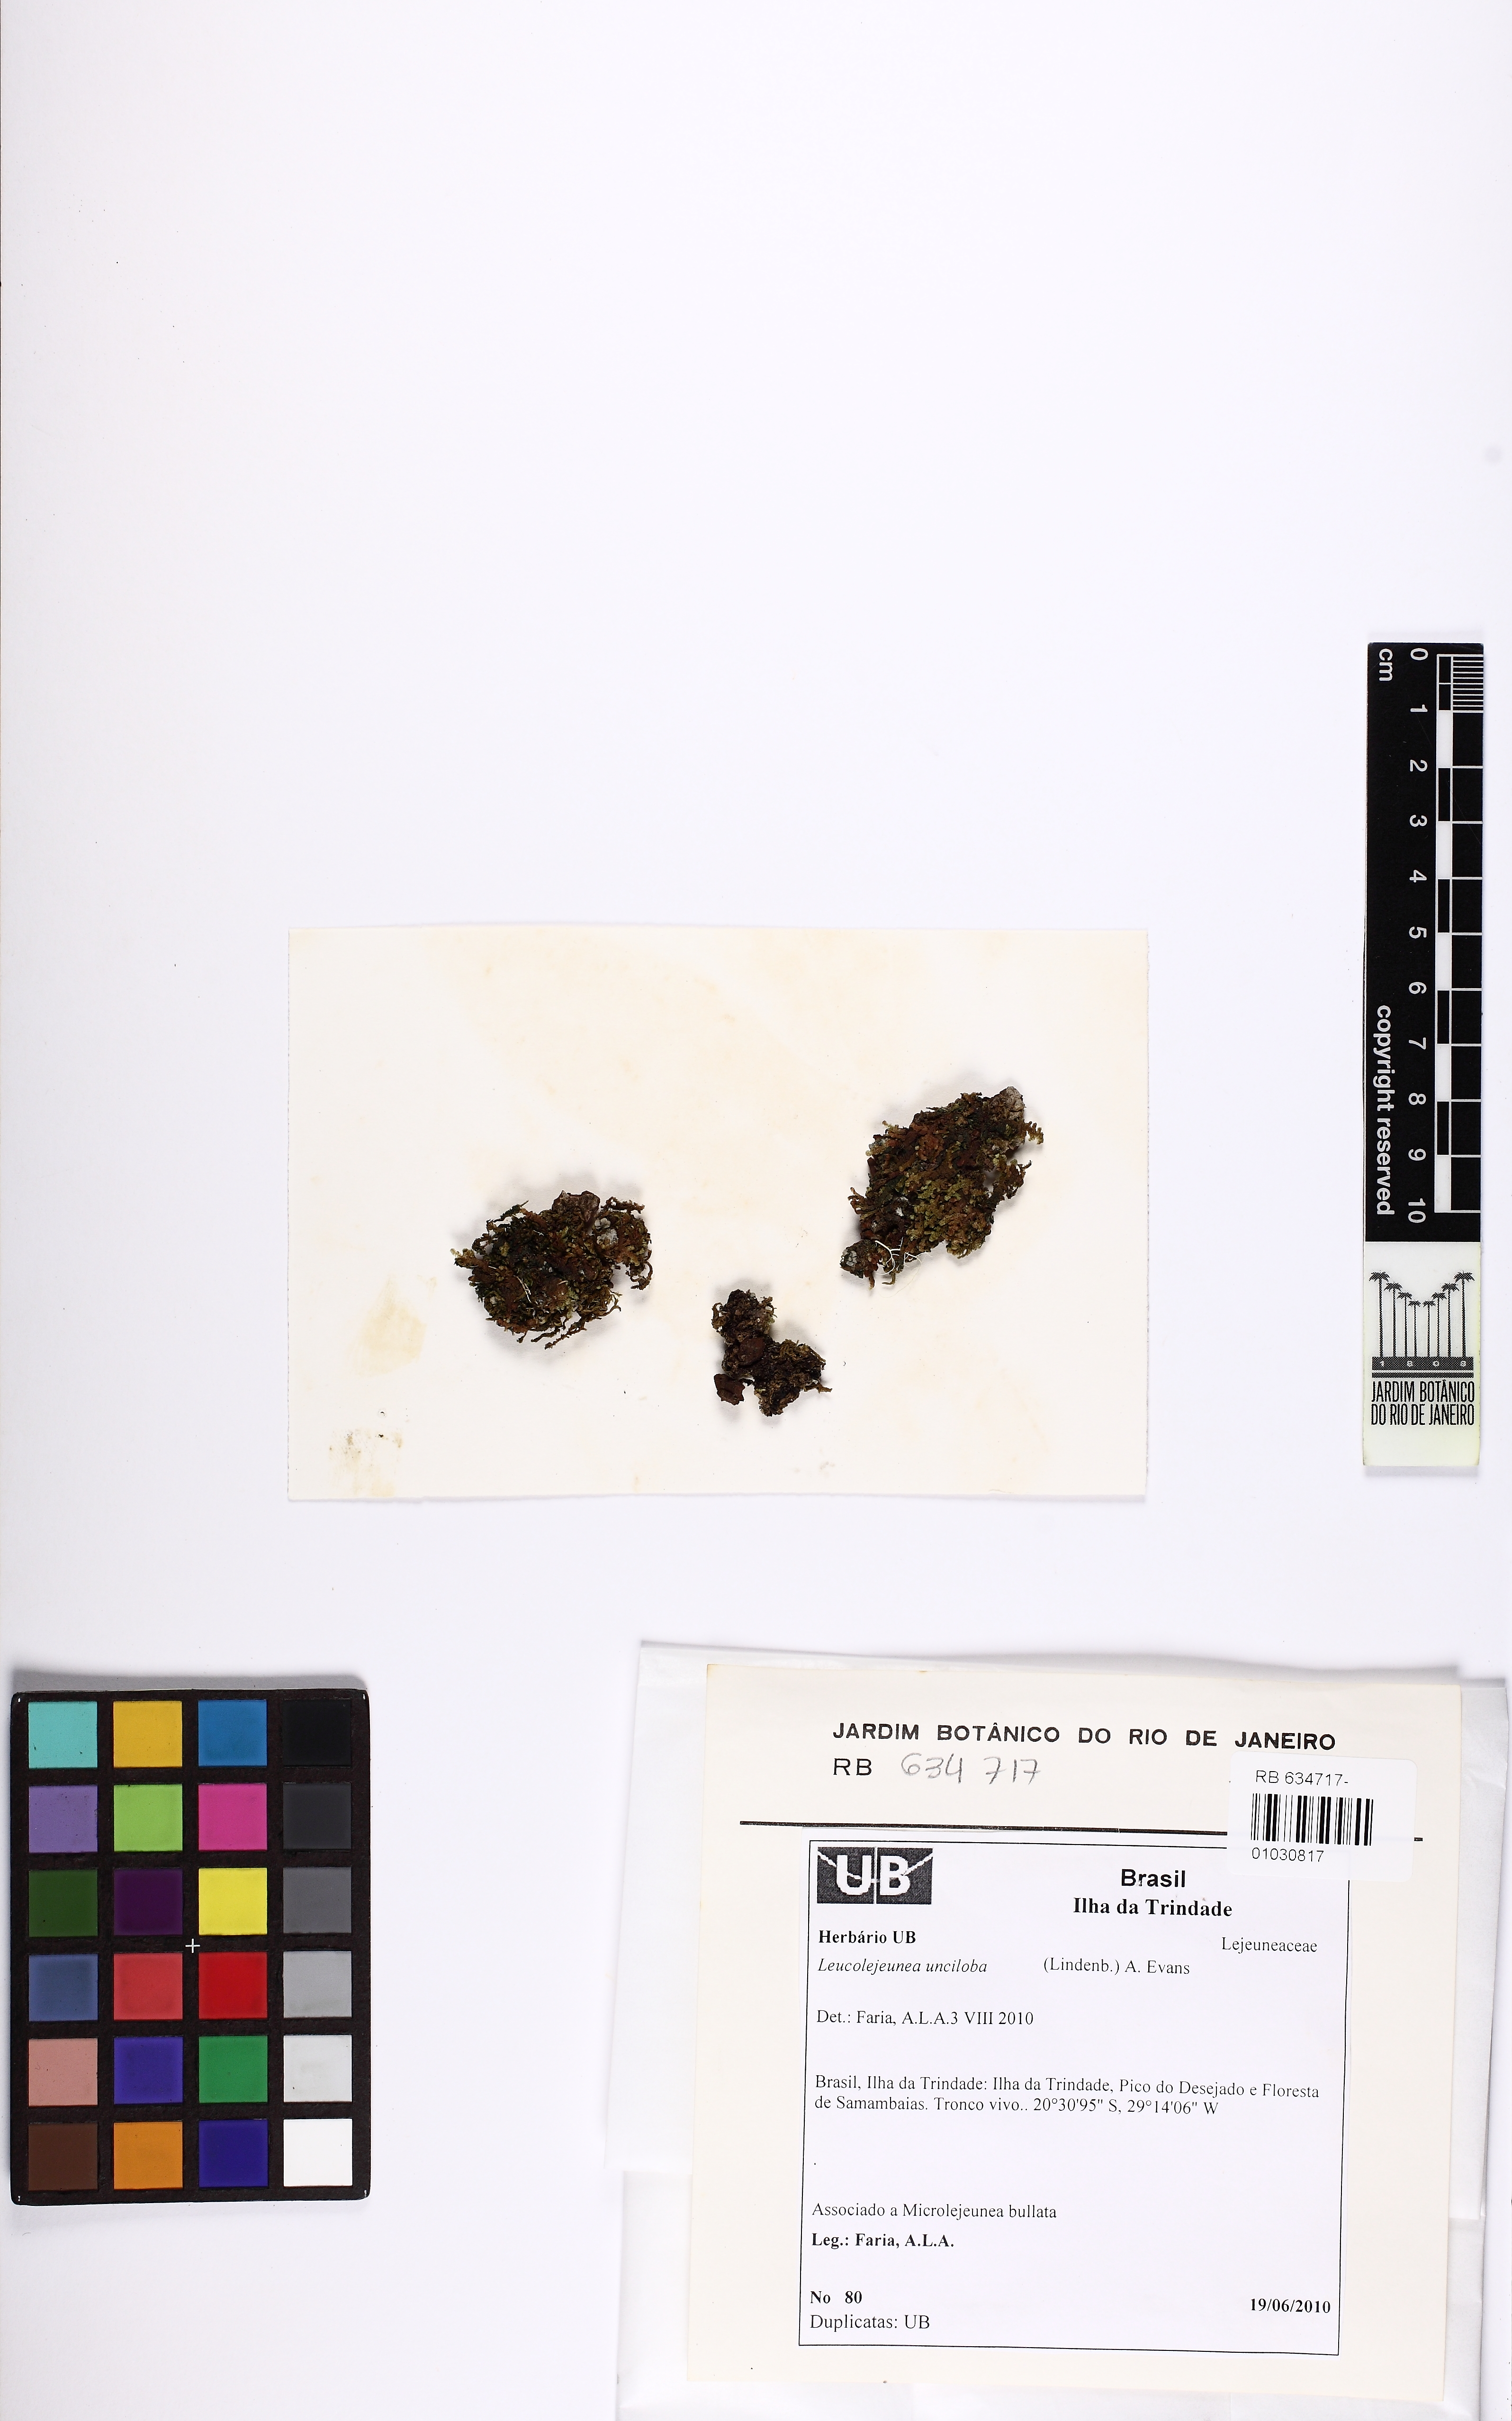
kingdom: Plantae
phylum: Marchantiophyta
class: Jungermanniopsida
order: Porellales
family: Lejeuneaceae
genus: Cheilolejeunea
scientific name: Cheilolejeunea unciloba
